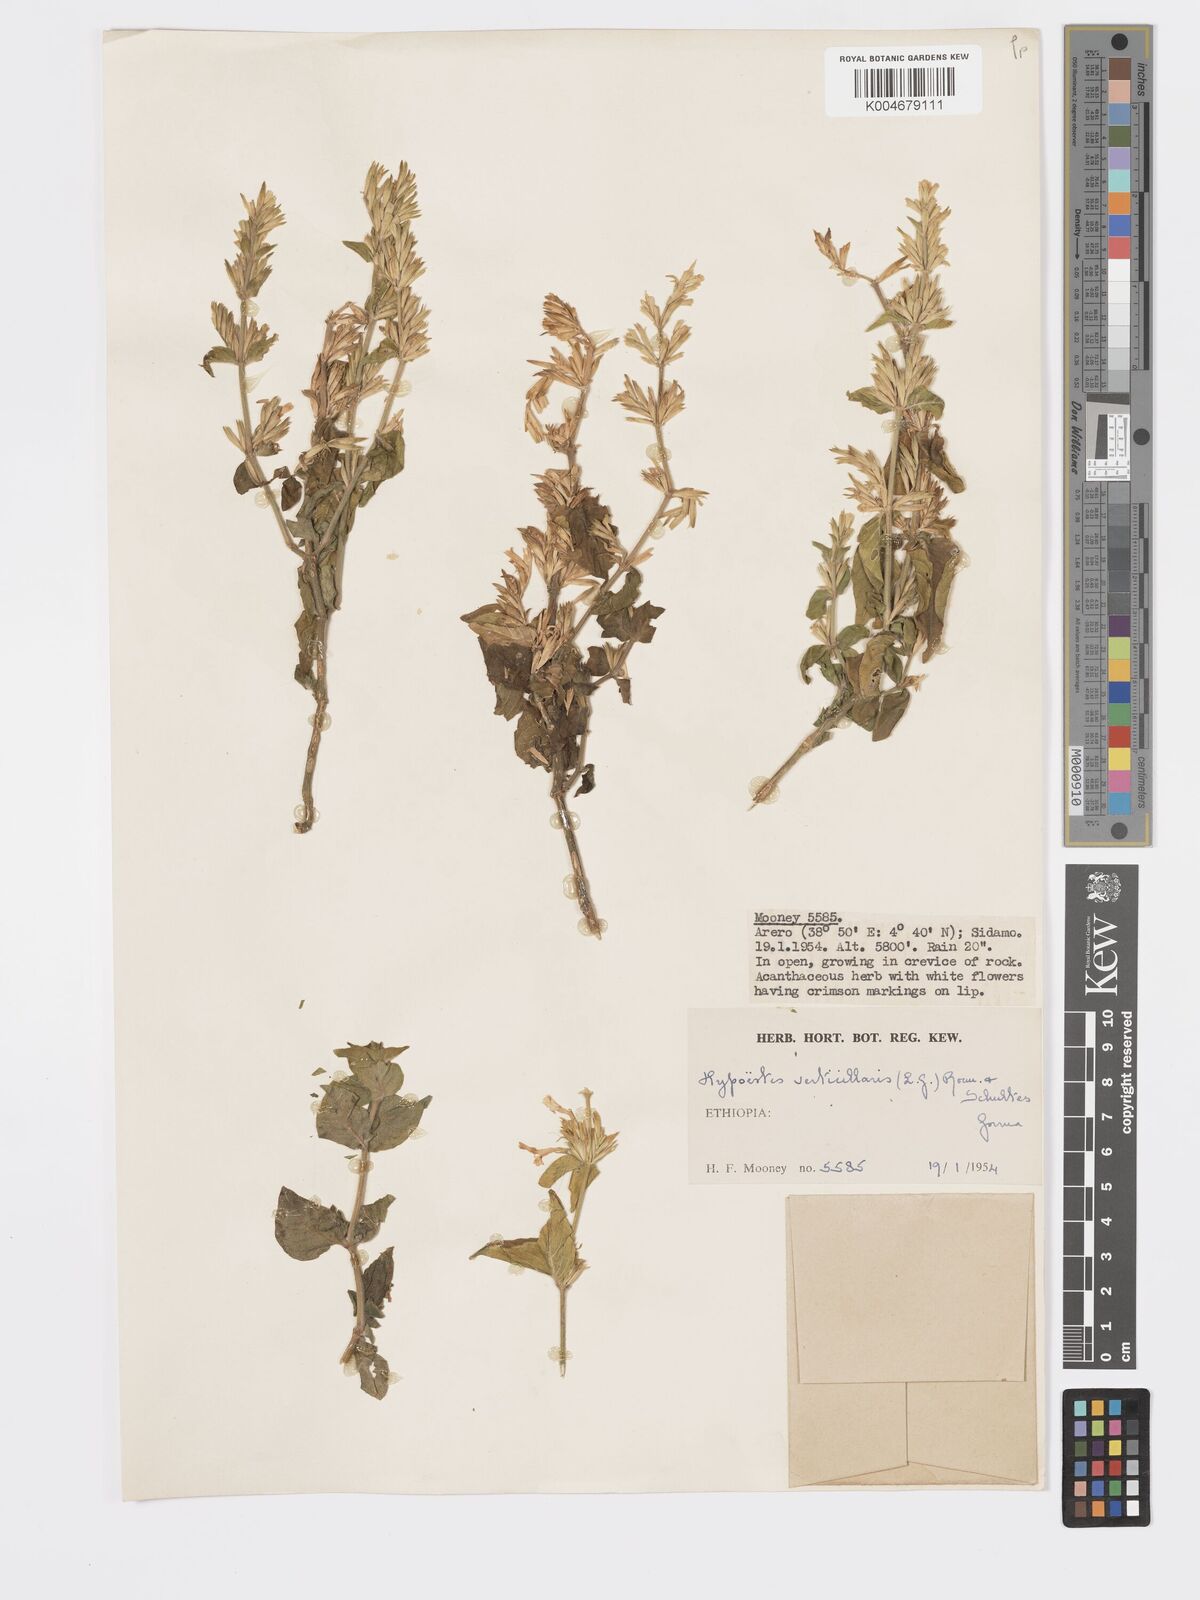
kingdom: Plantae
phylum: Tracheophyta
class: Magnoliopsida
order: Lamiales
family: Acanthaceae
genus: Hypoestes
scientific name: Hypoestes forskaolii
